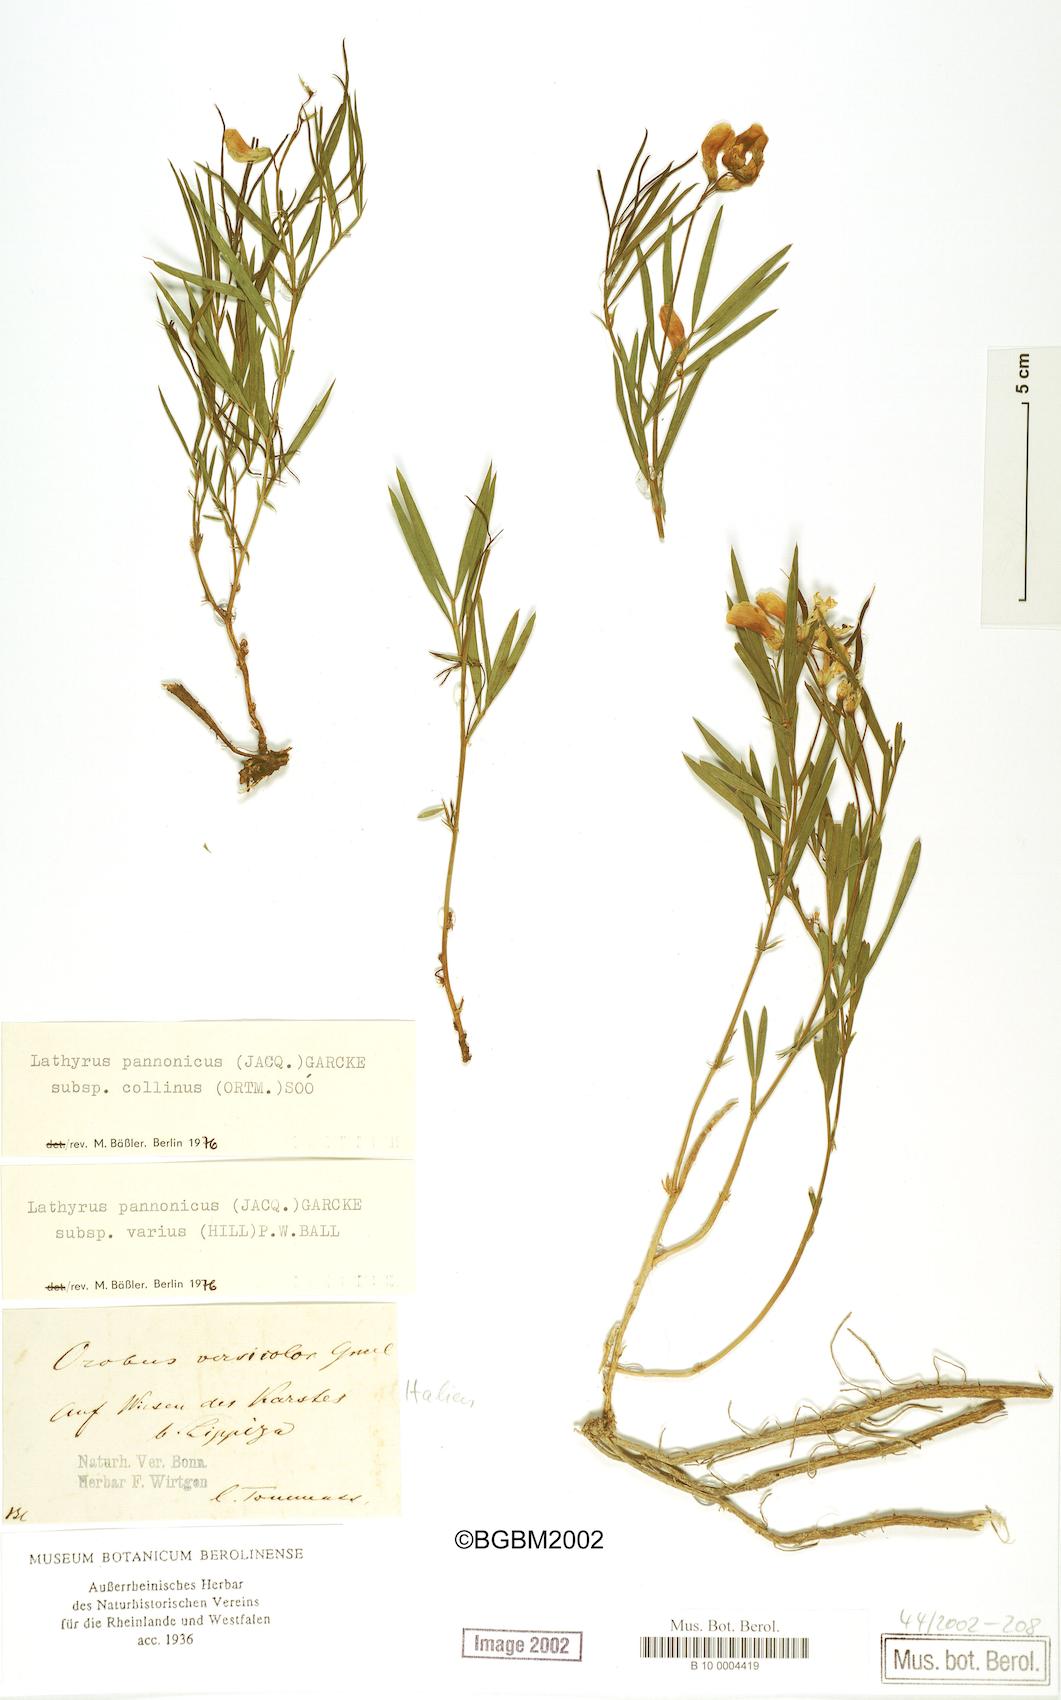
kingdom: Plantae
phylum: Tracheophyta
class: Magnoliopsida
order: Fabales
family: Fabaceae
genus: Lathyrus
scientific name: Lathyrus pannonicus
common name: Pea
